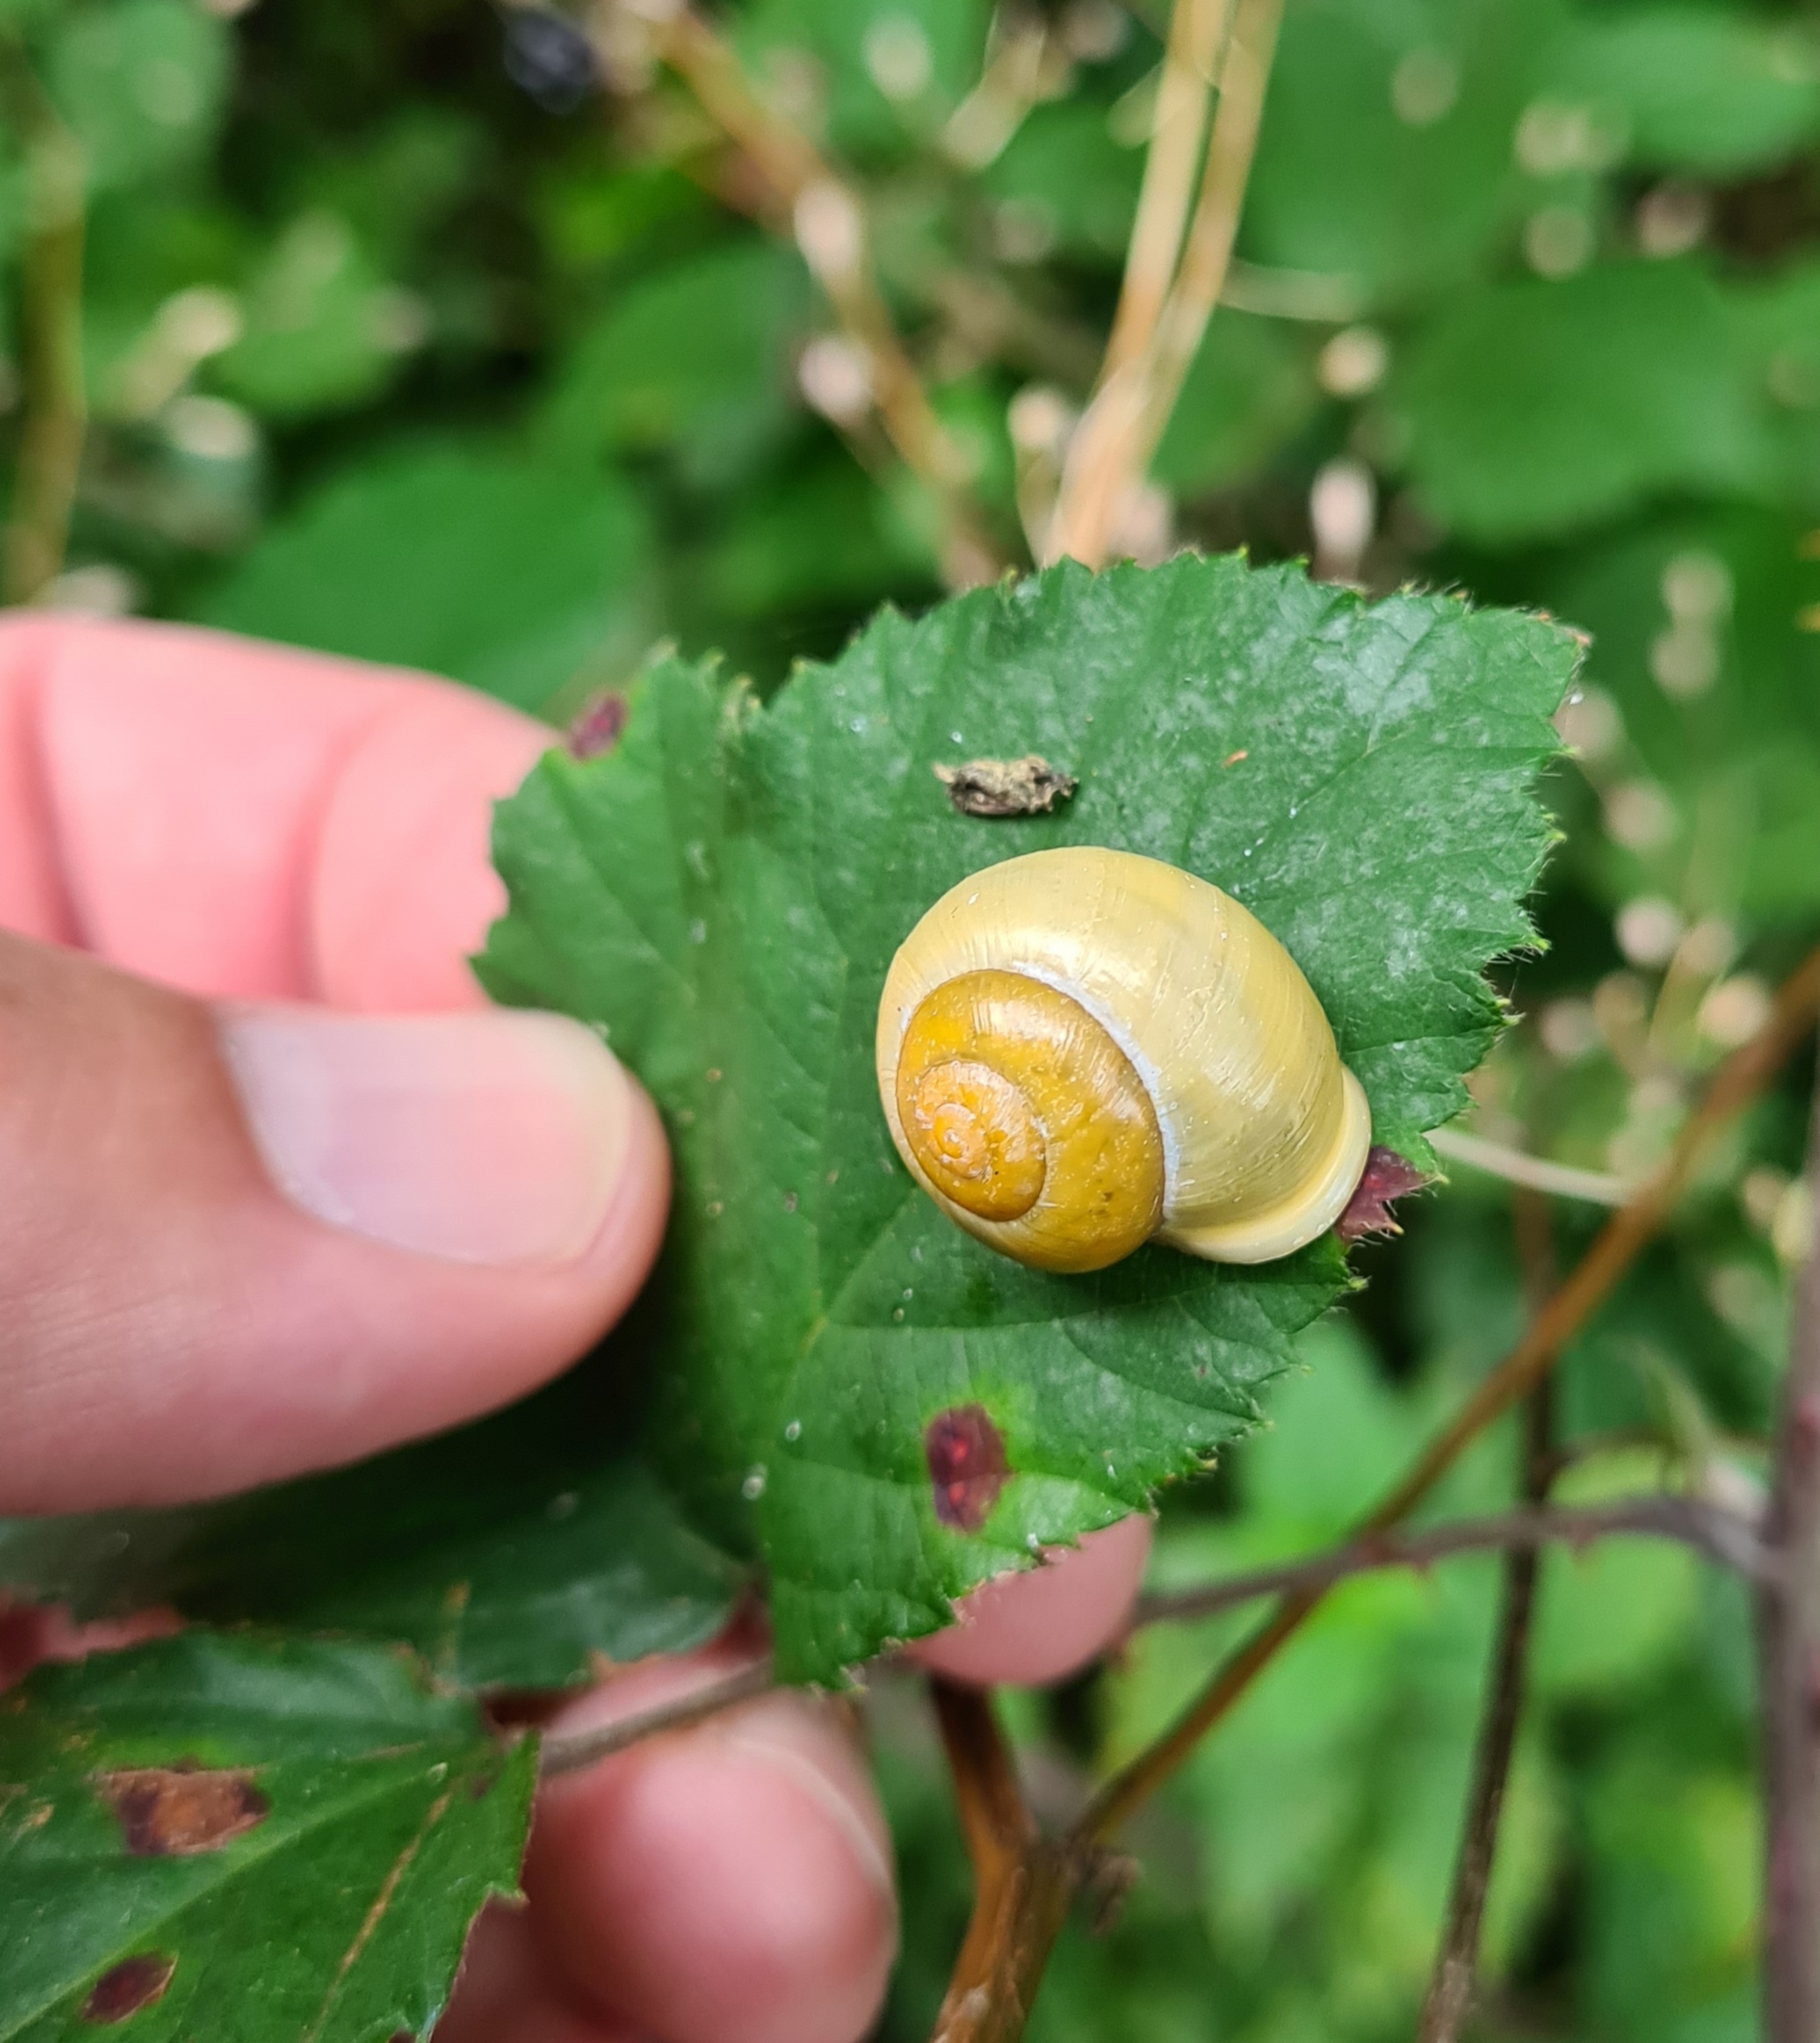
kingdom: Animalia
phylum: Mollusca
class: Gastropoda
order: Stylommatophora
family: Helicidae
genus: Cepaea
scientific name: Cepaea hortensis
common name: Havesnegl
